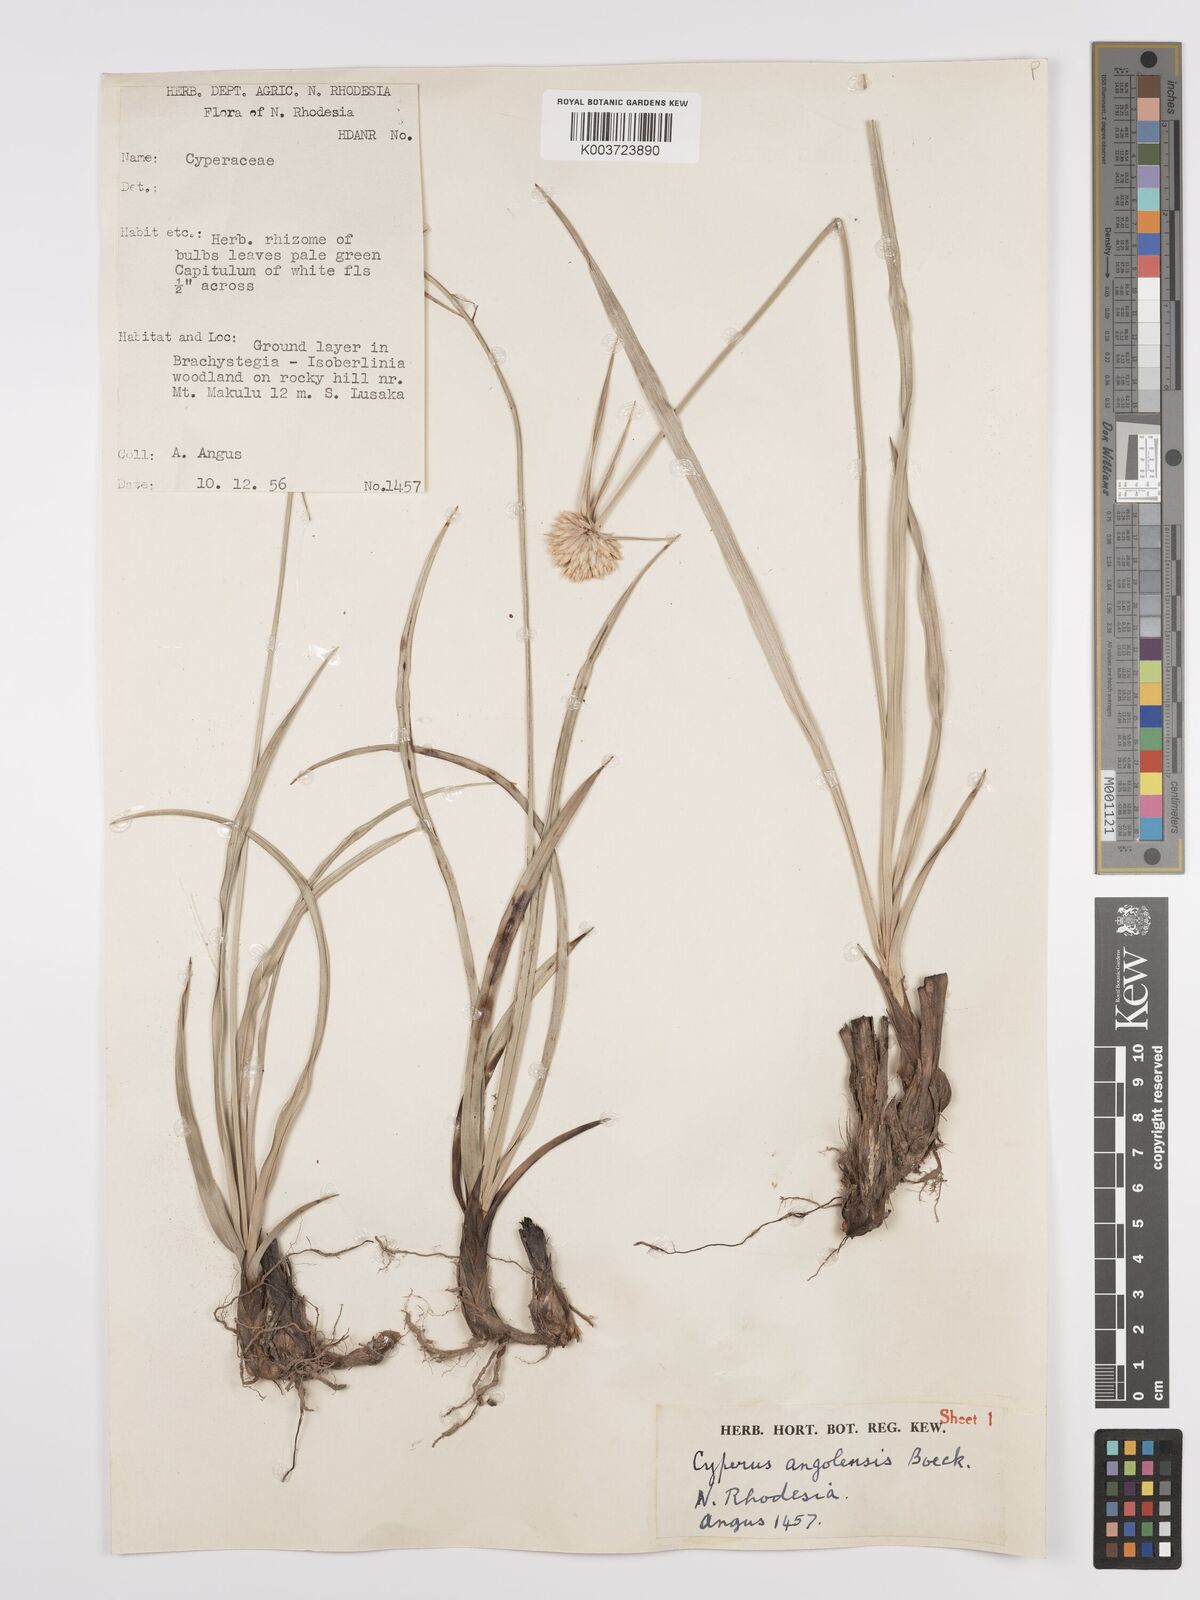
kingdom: Plantae
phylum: Tracheophyta
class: Liliopsida
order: Poales
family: Cyperaceae
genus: Cyperus
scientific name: Cyperus angolensis
